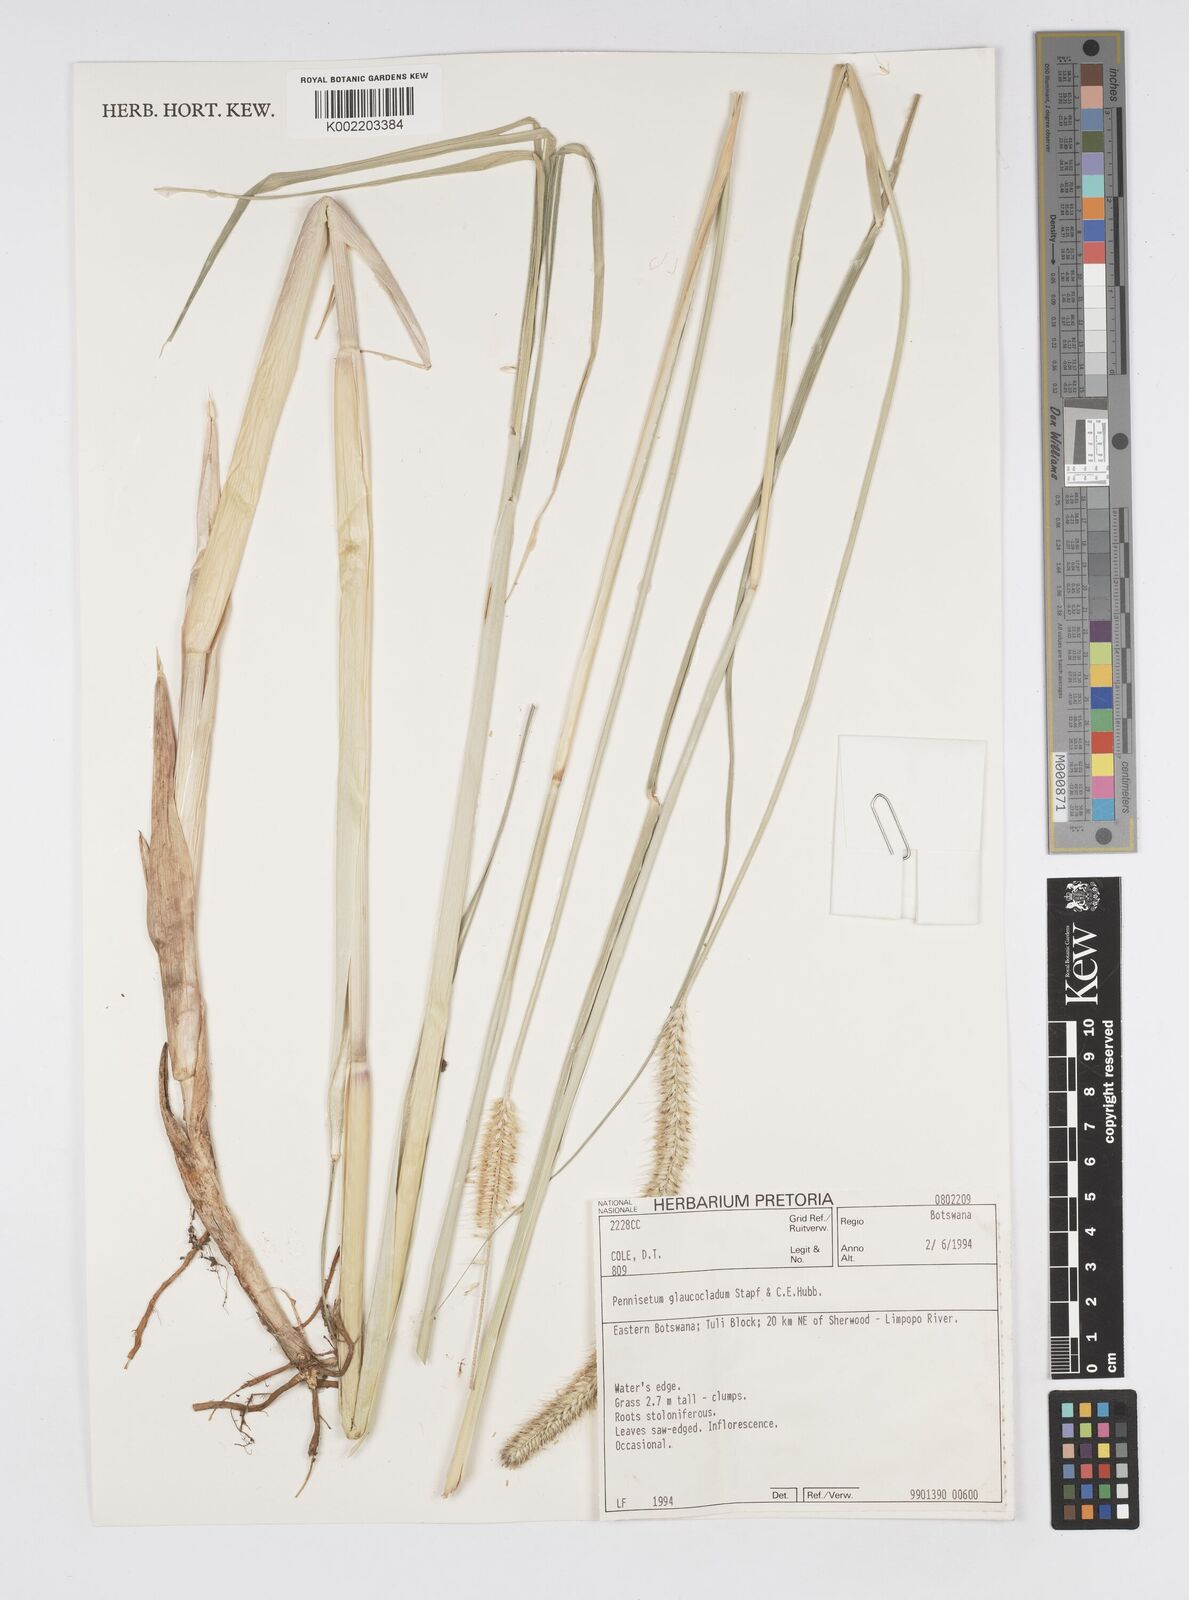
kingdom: Plantae
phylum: Tracheophyta
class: Liliopsida
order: Poales
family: Poaceae
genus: Cenchrus
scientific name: Cenchrus caudatus
